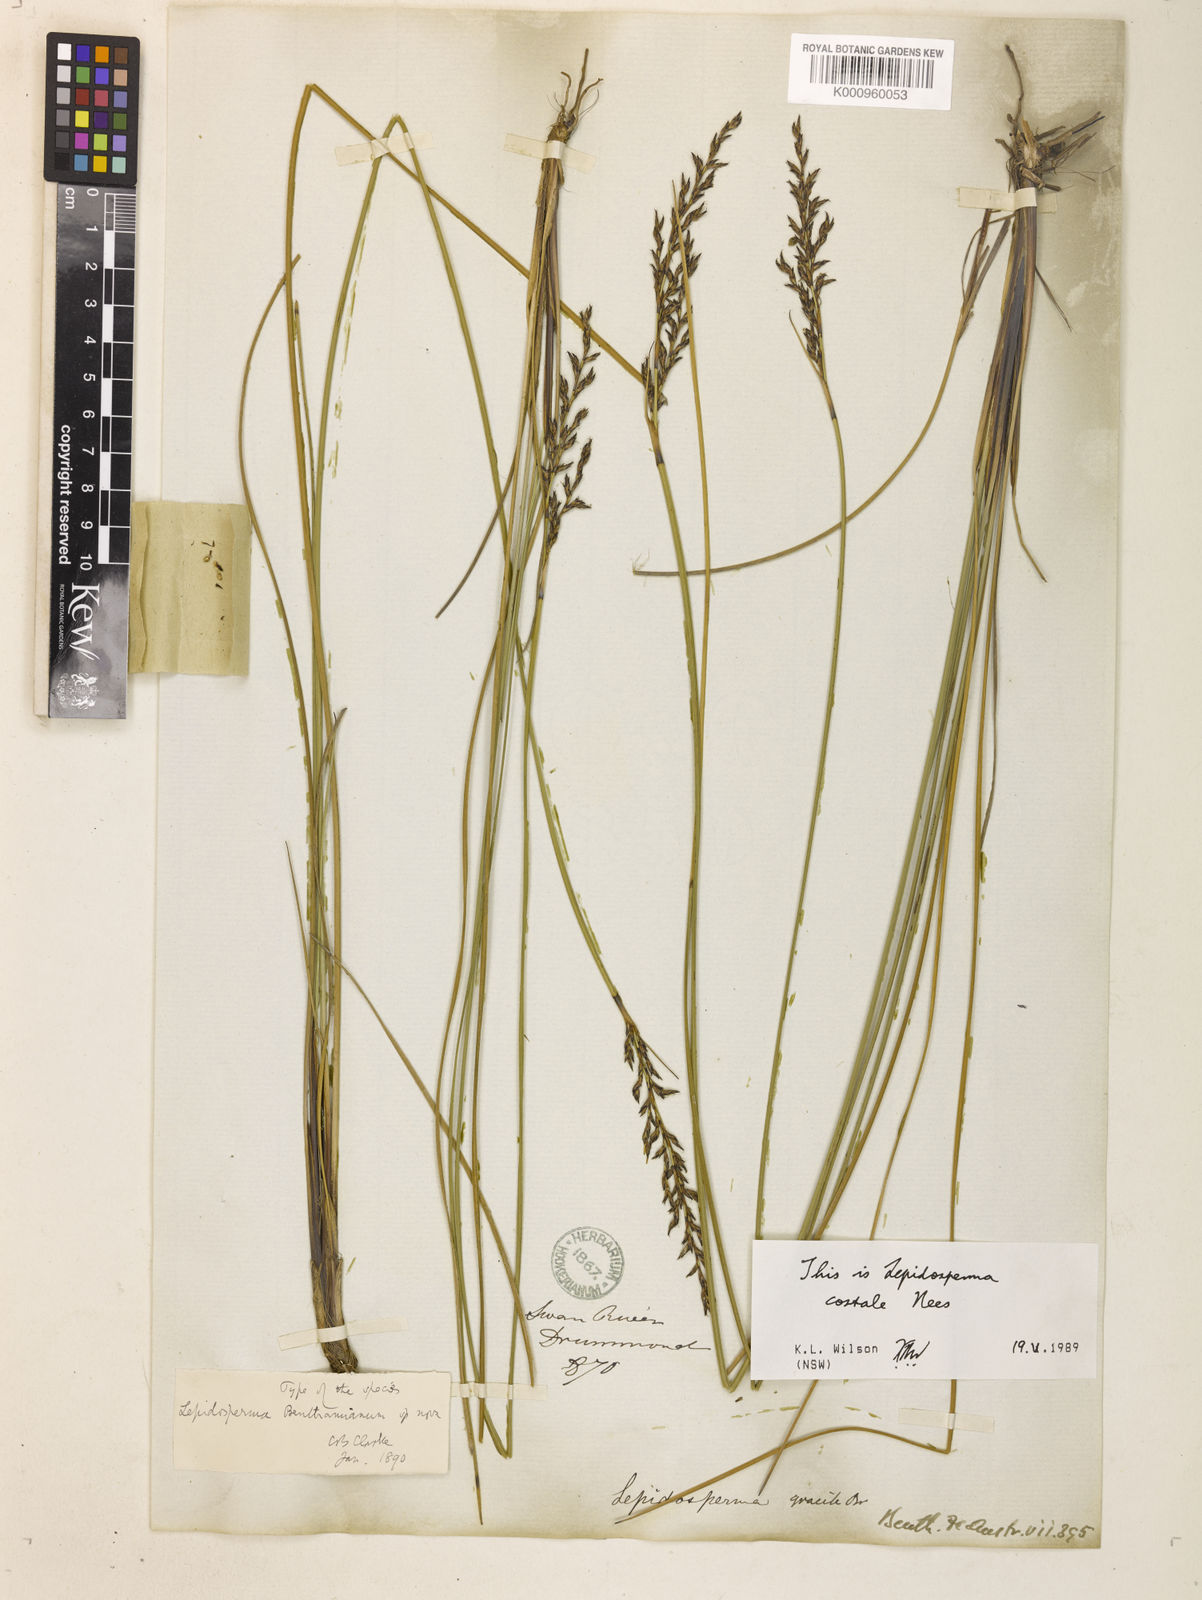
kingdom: Plantae
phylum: Tracheophyta
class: Liliopsida
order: Poales
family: Cyperaceae
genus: Lepidosperma
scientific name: Lepidosperma benthamianum
